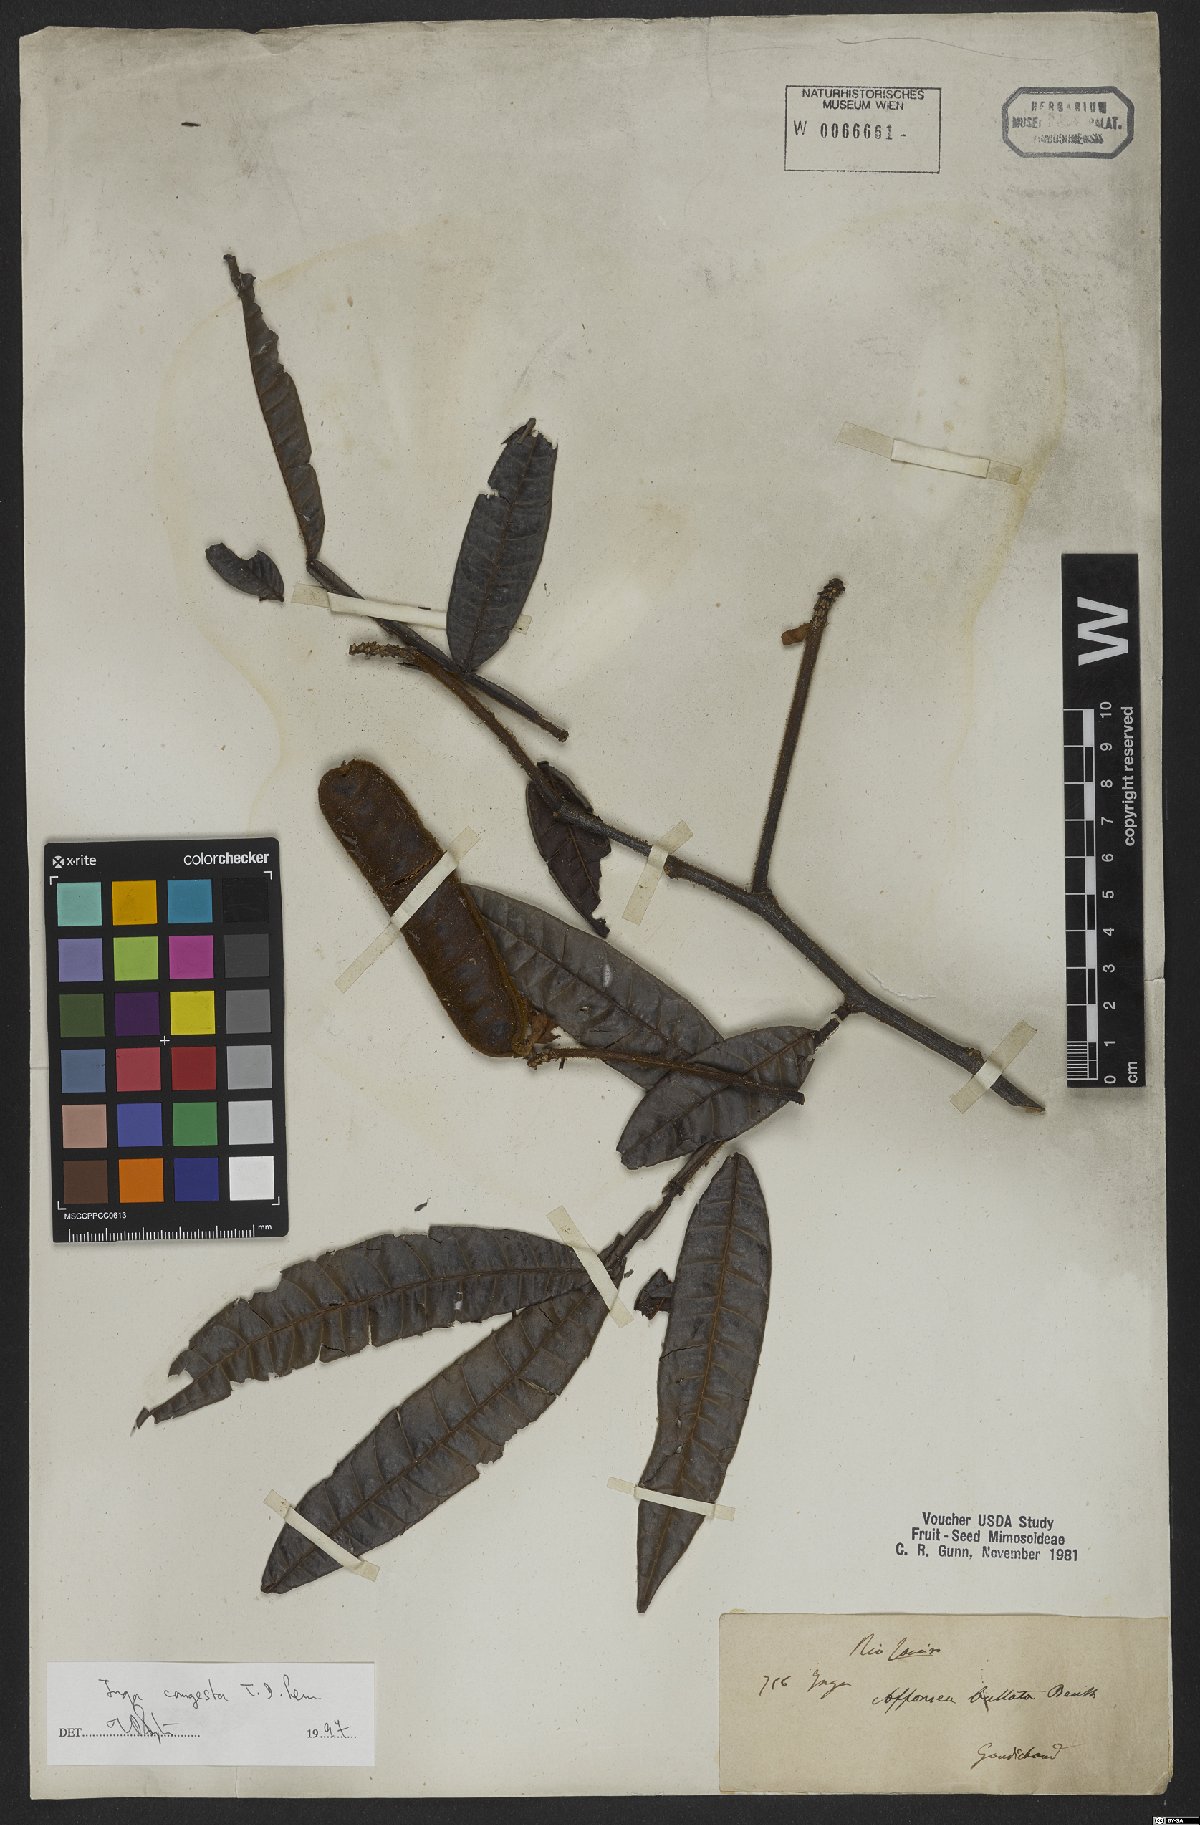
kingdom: Plantae
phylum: Tracheophyta
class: Magnoliopsida
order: Fabales
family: Fabaceae
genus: Inga
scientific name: Inga congesta
